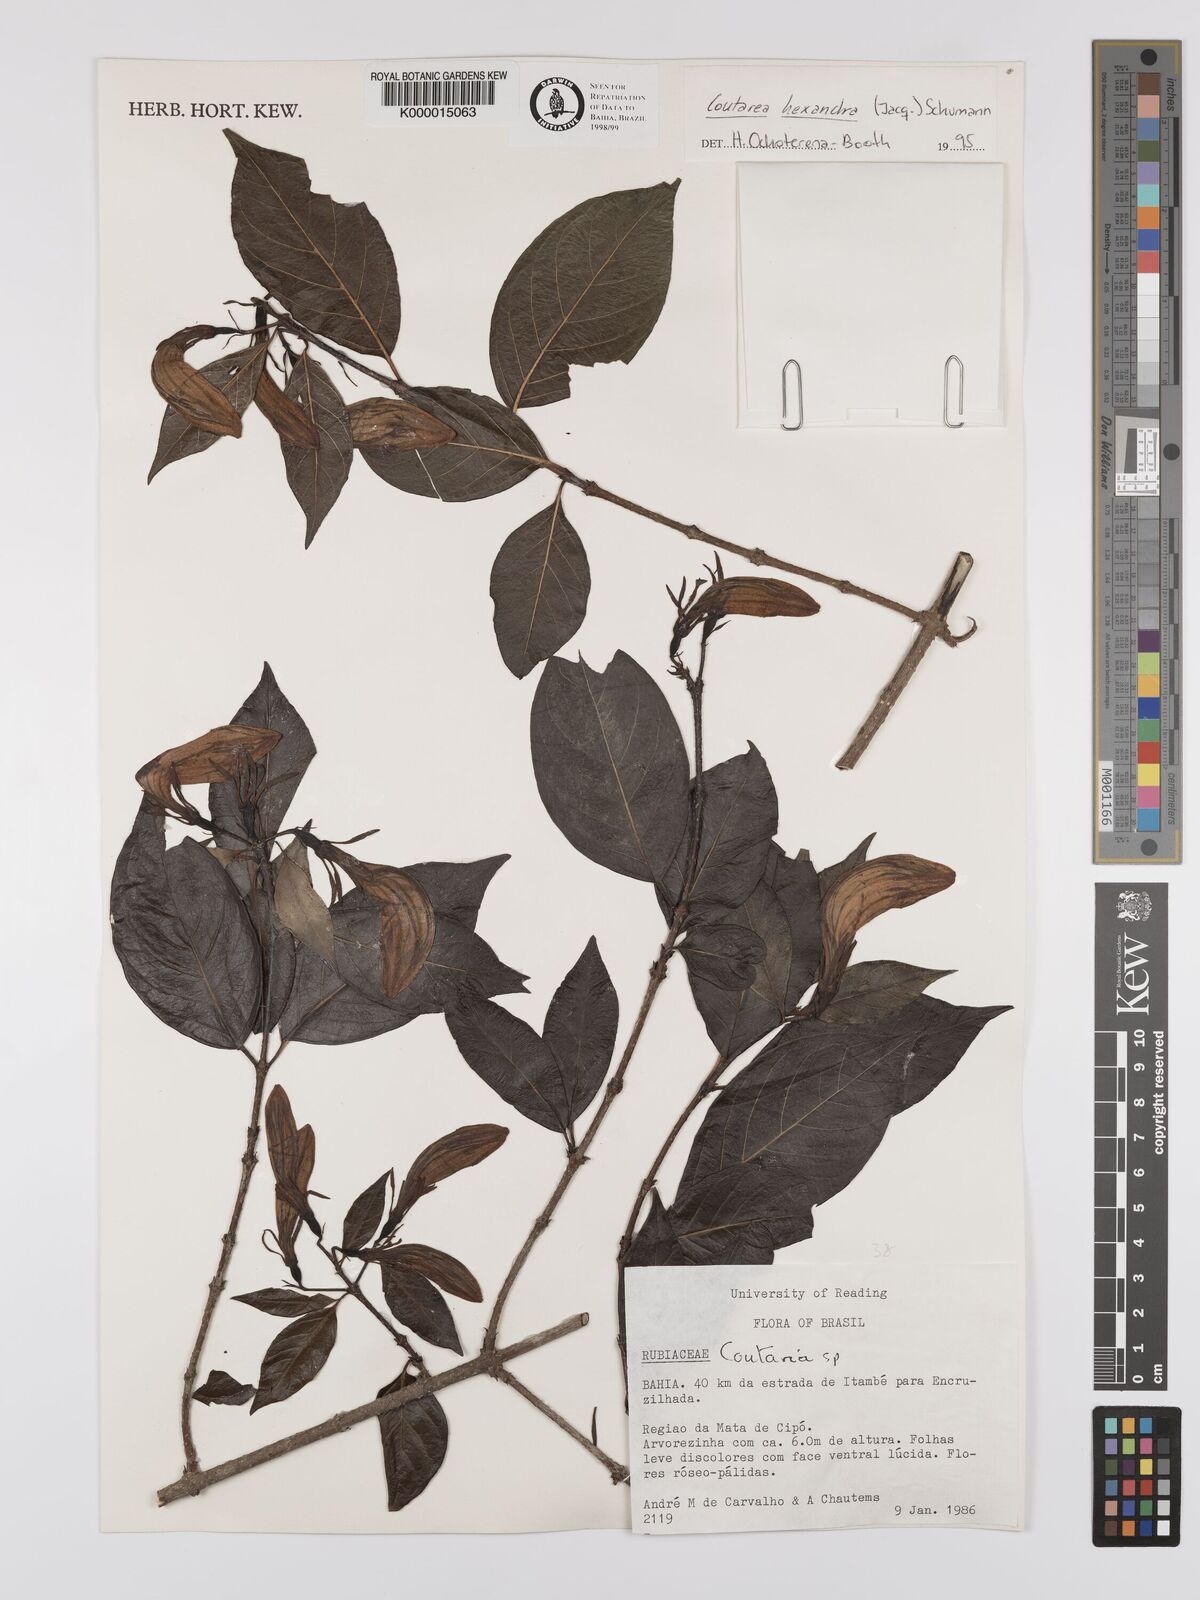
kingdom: Plantae
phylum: Tracheophyta
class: Magnoliopsida
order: Gentianales
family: Rubiaceae
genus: Coutarea
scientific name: Coutarea hexandra
